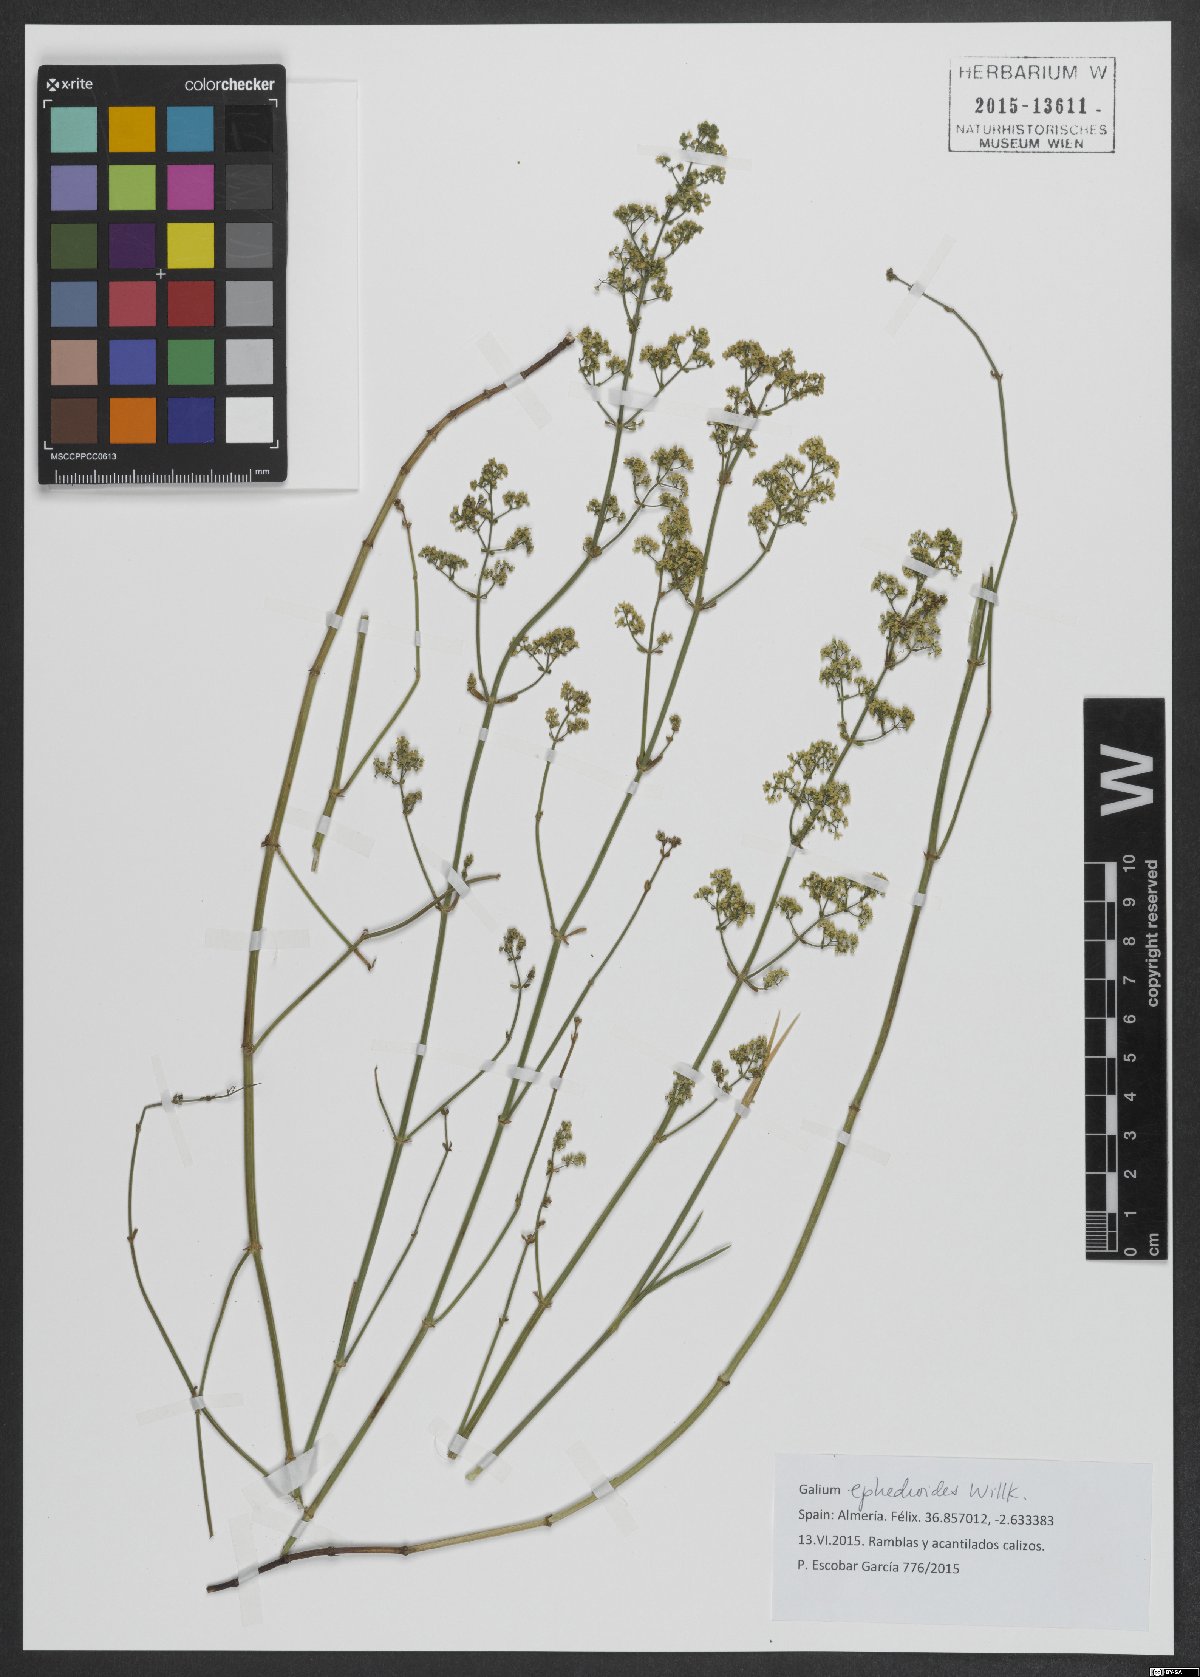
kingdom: Plantae
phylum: Tracheophyta
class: Magnoliopsida
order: Gentianales
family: Rubiaceae
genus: Galium
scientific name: Galium ephedroides
